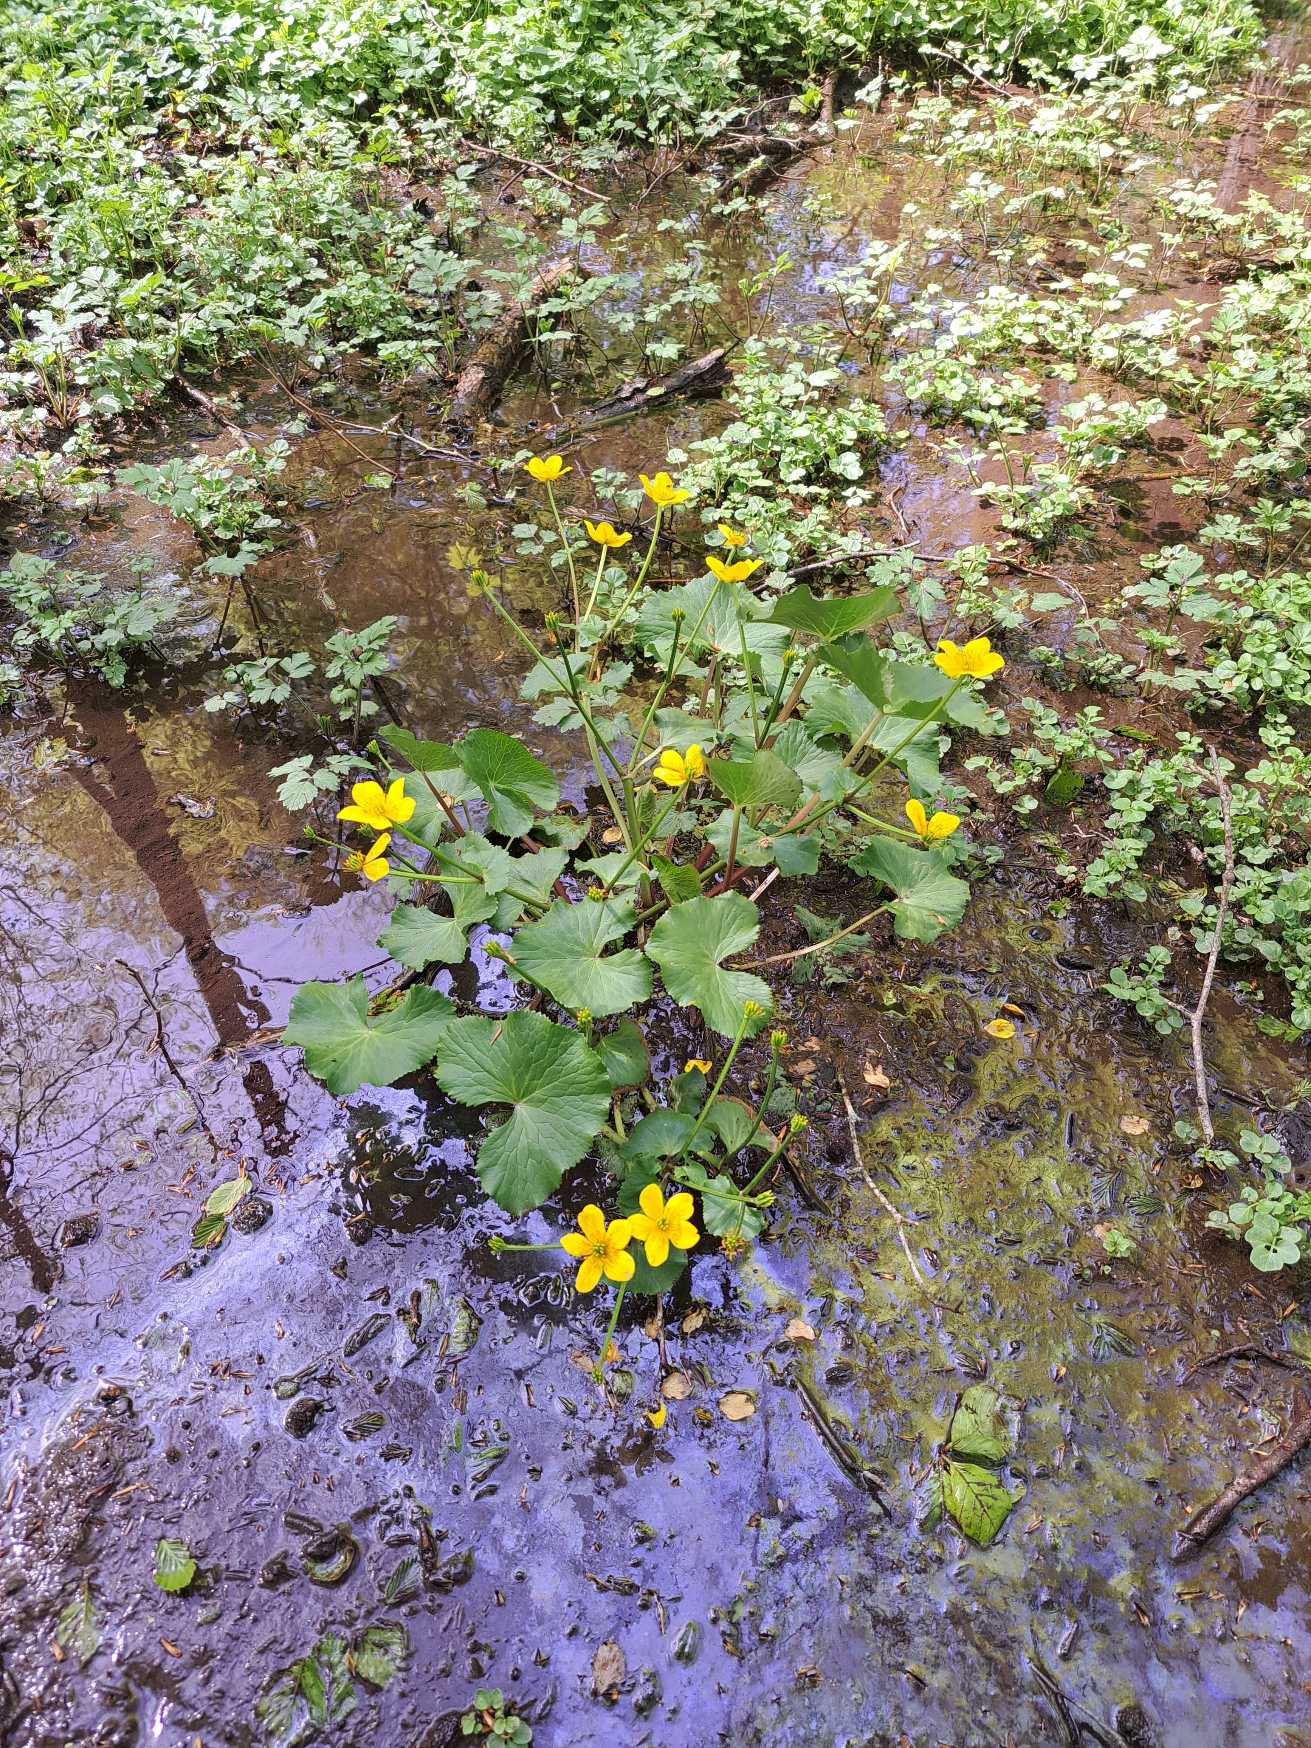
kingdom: Plantae
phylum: Tracheophyta
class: Magnoliopsida
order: Ranunculales
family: Ranunculaceae
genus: Caltha
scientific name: Caltha palustris
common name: Eng-kabbeleje
